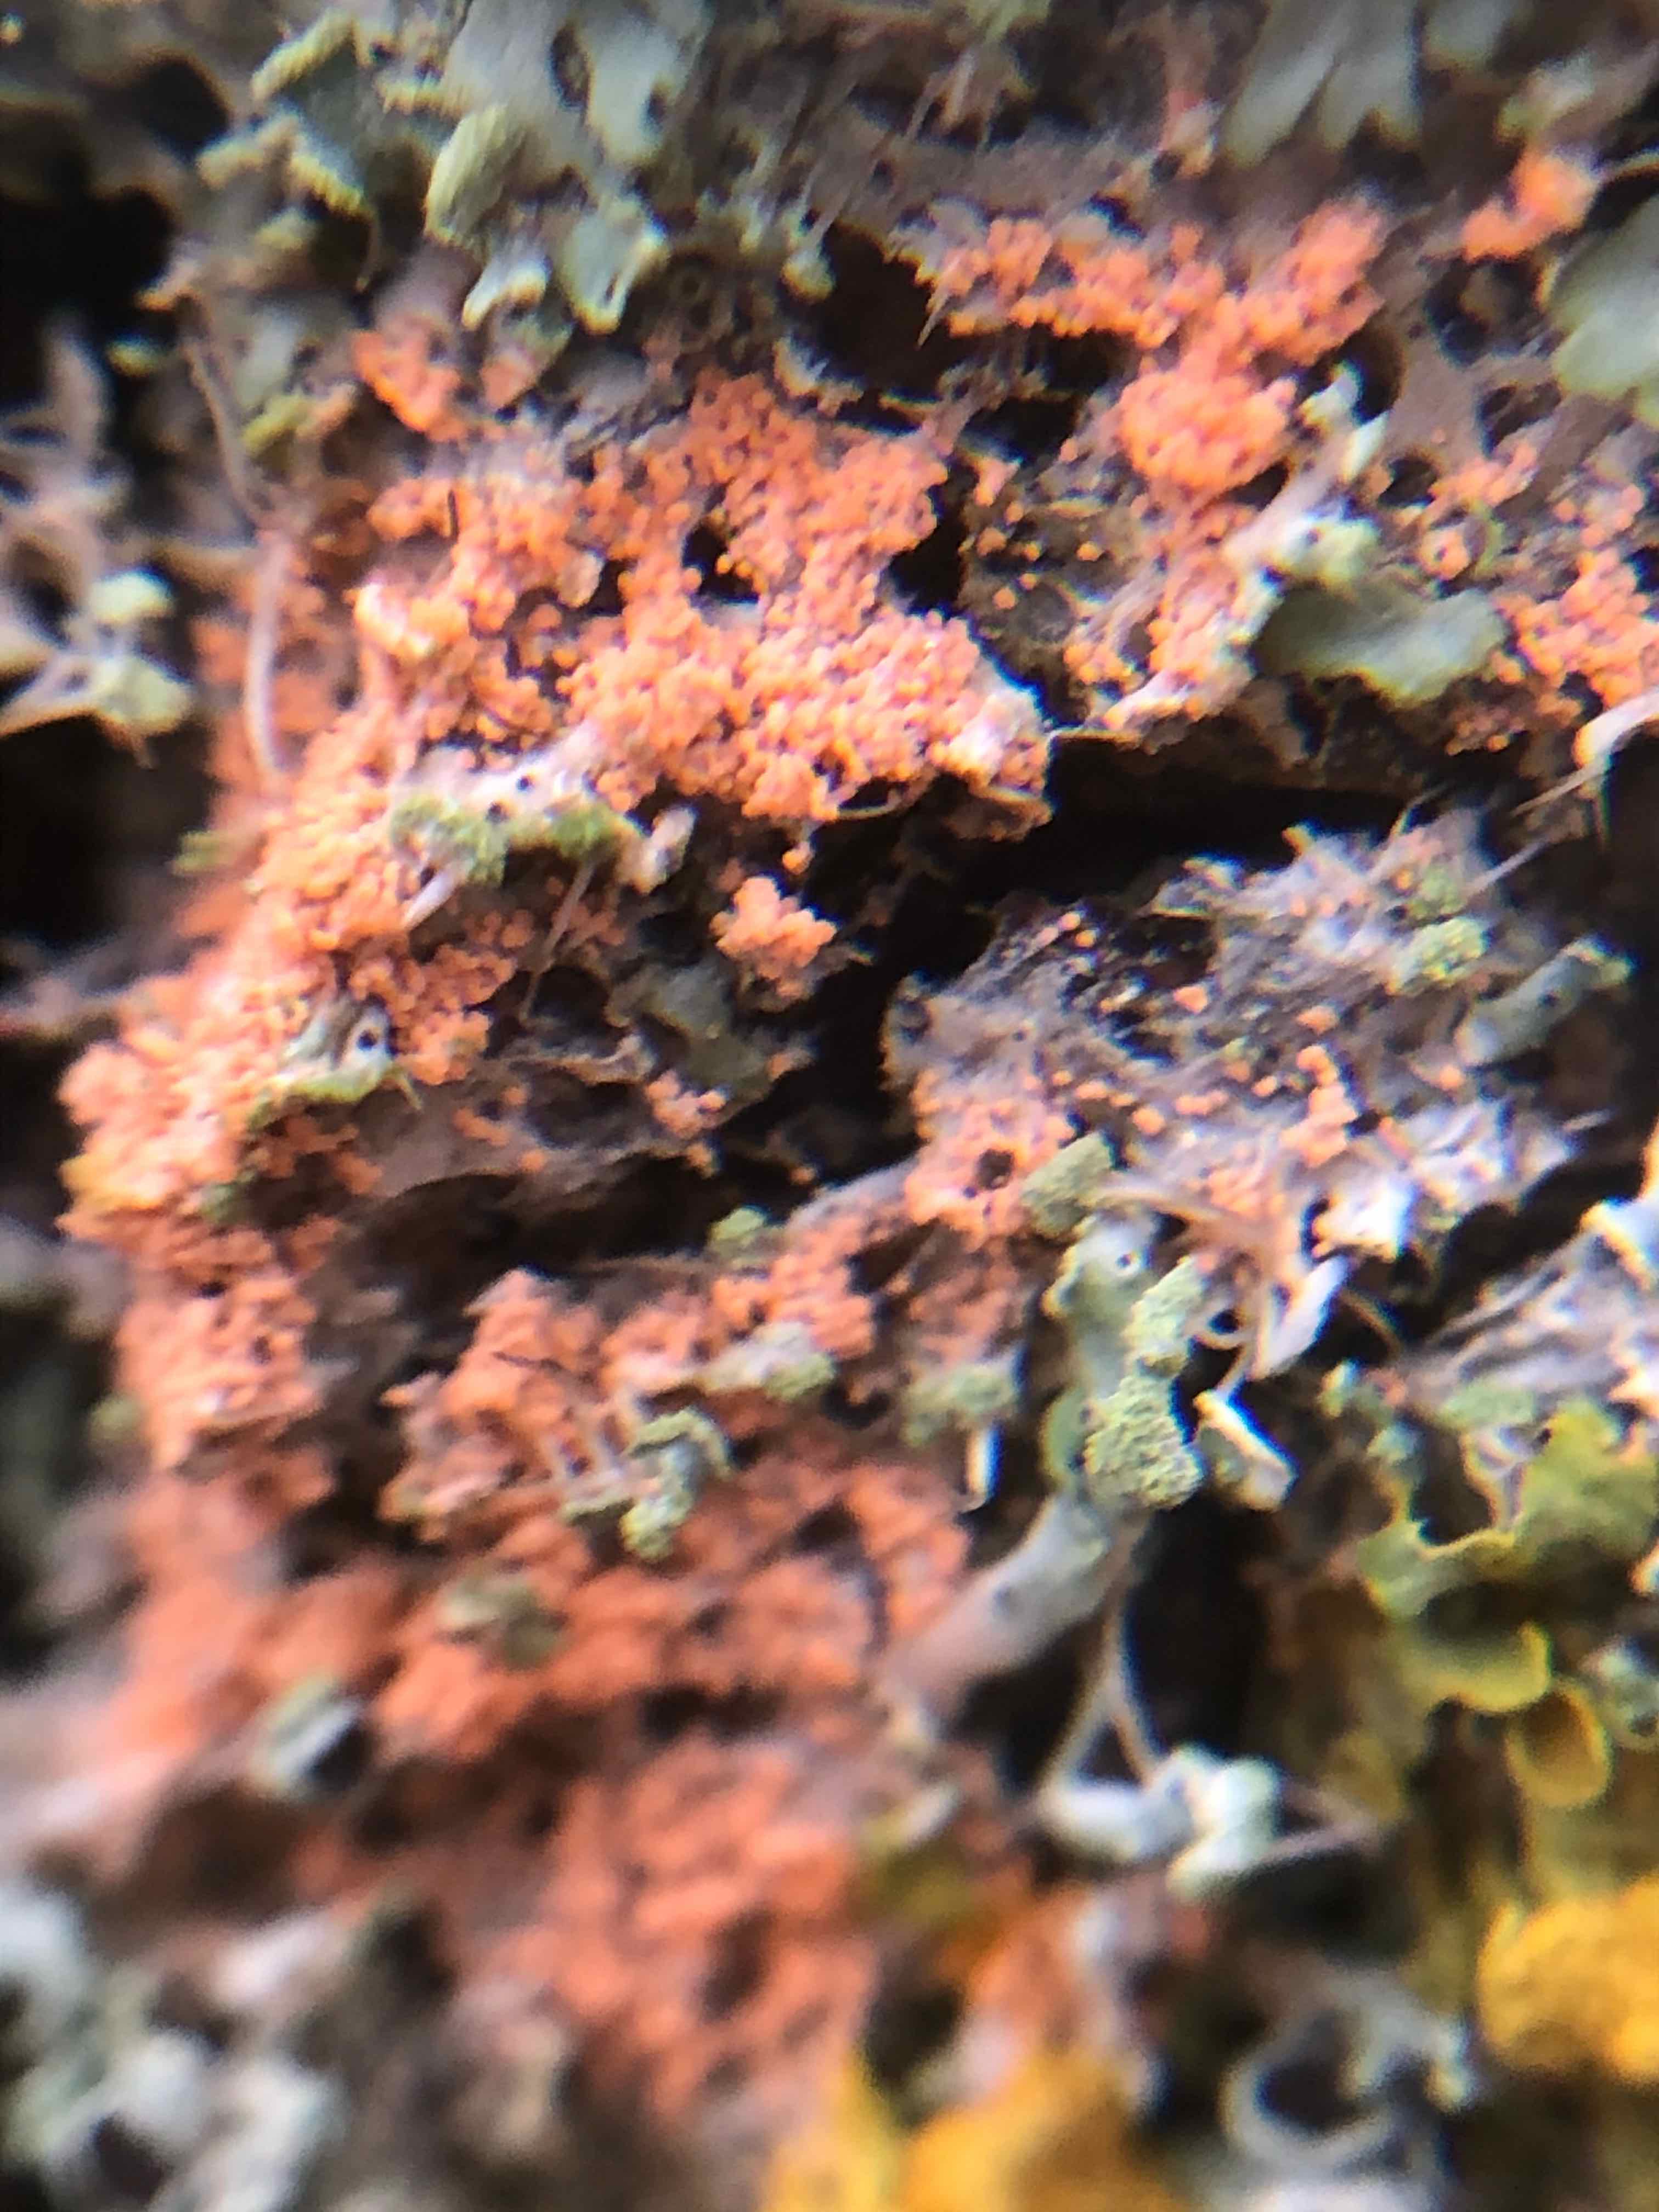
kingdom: Fungi
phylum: Basidiomycota
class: Agaricomycetes
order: Corticiales
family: Corticiaceae
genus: Erythricium
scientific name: Erythricium aurantiacum
